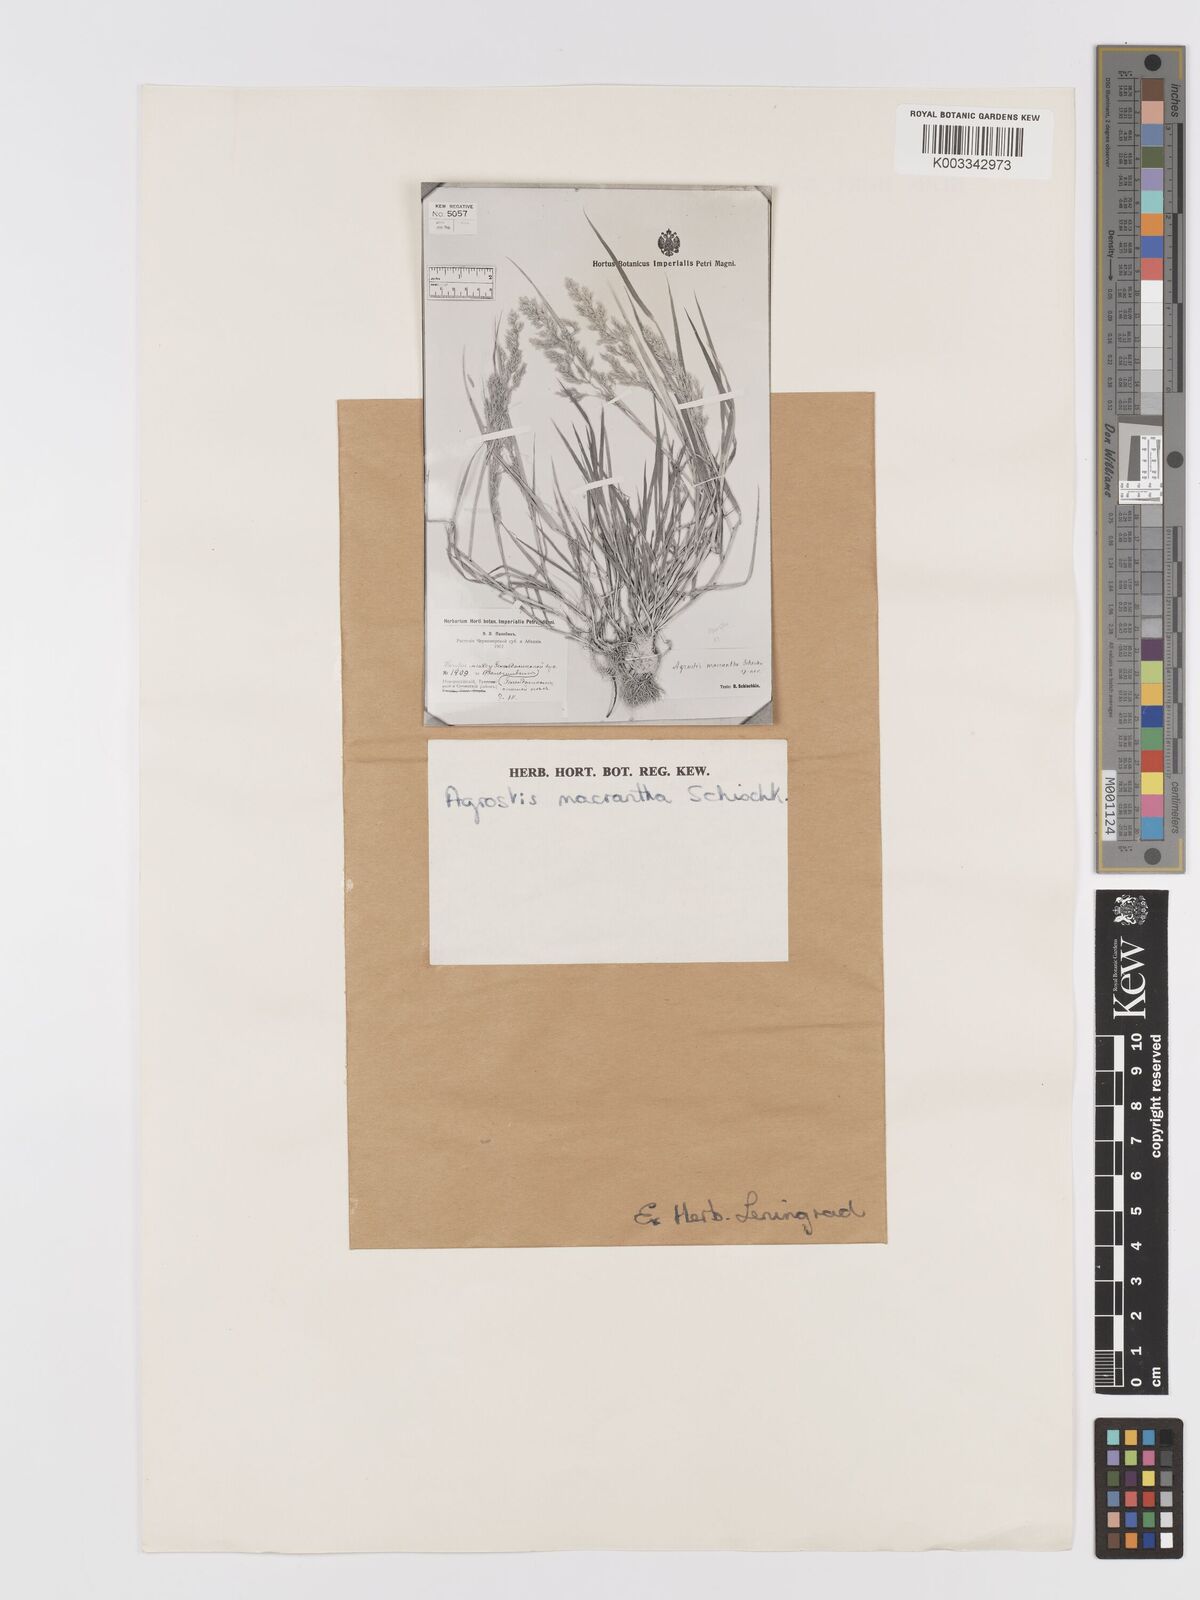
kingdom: Plantae
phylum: Tracheophyta
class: Liliopsida
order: Poales
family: Poaceae
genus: Agrostis
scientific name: Agrostis stolonifera
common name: Creeping bentgrass
